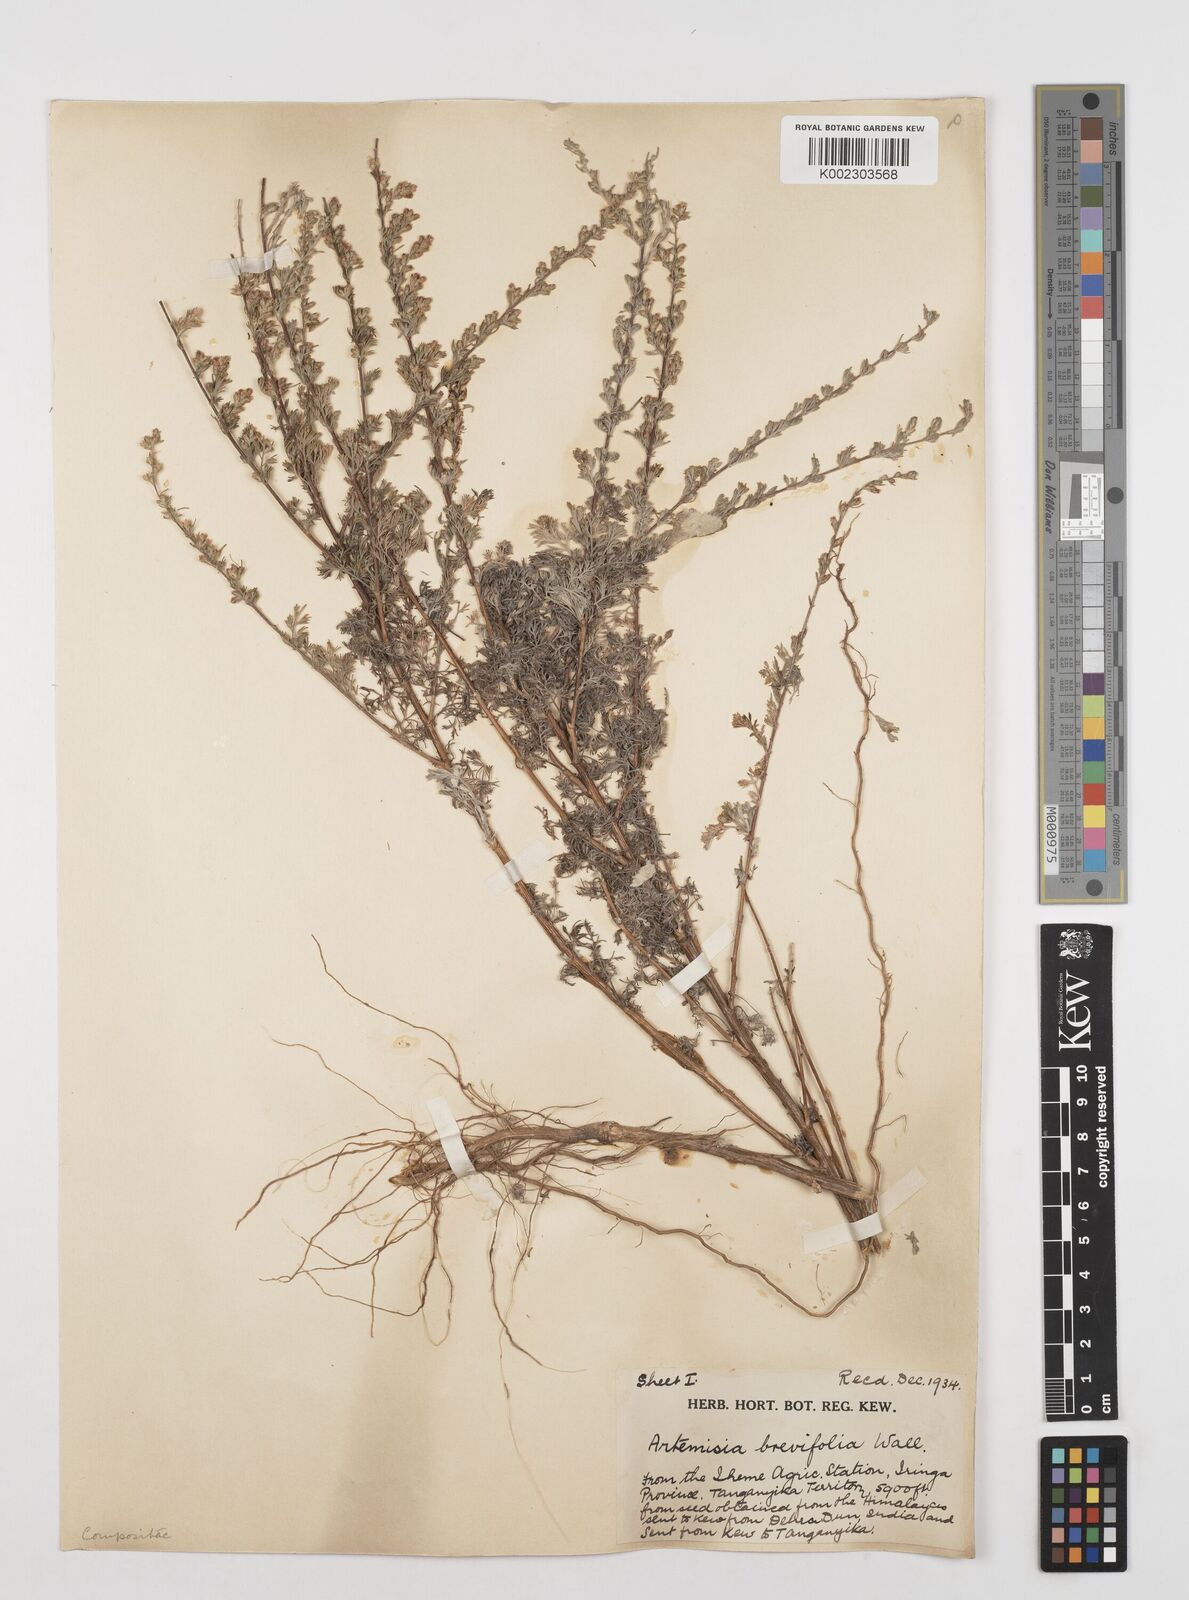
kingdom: Plantae
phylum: Tracheophyta
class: Magnoliopsida
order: Asterales
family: Asteraceae
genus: Artemisia
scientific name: Artemisia brevifolia
